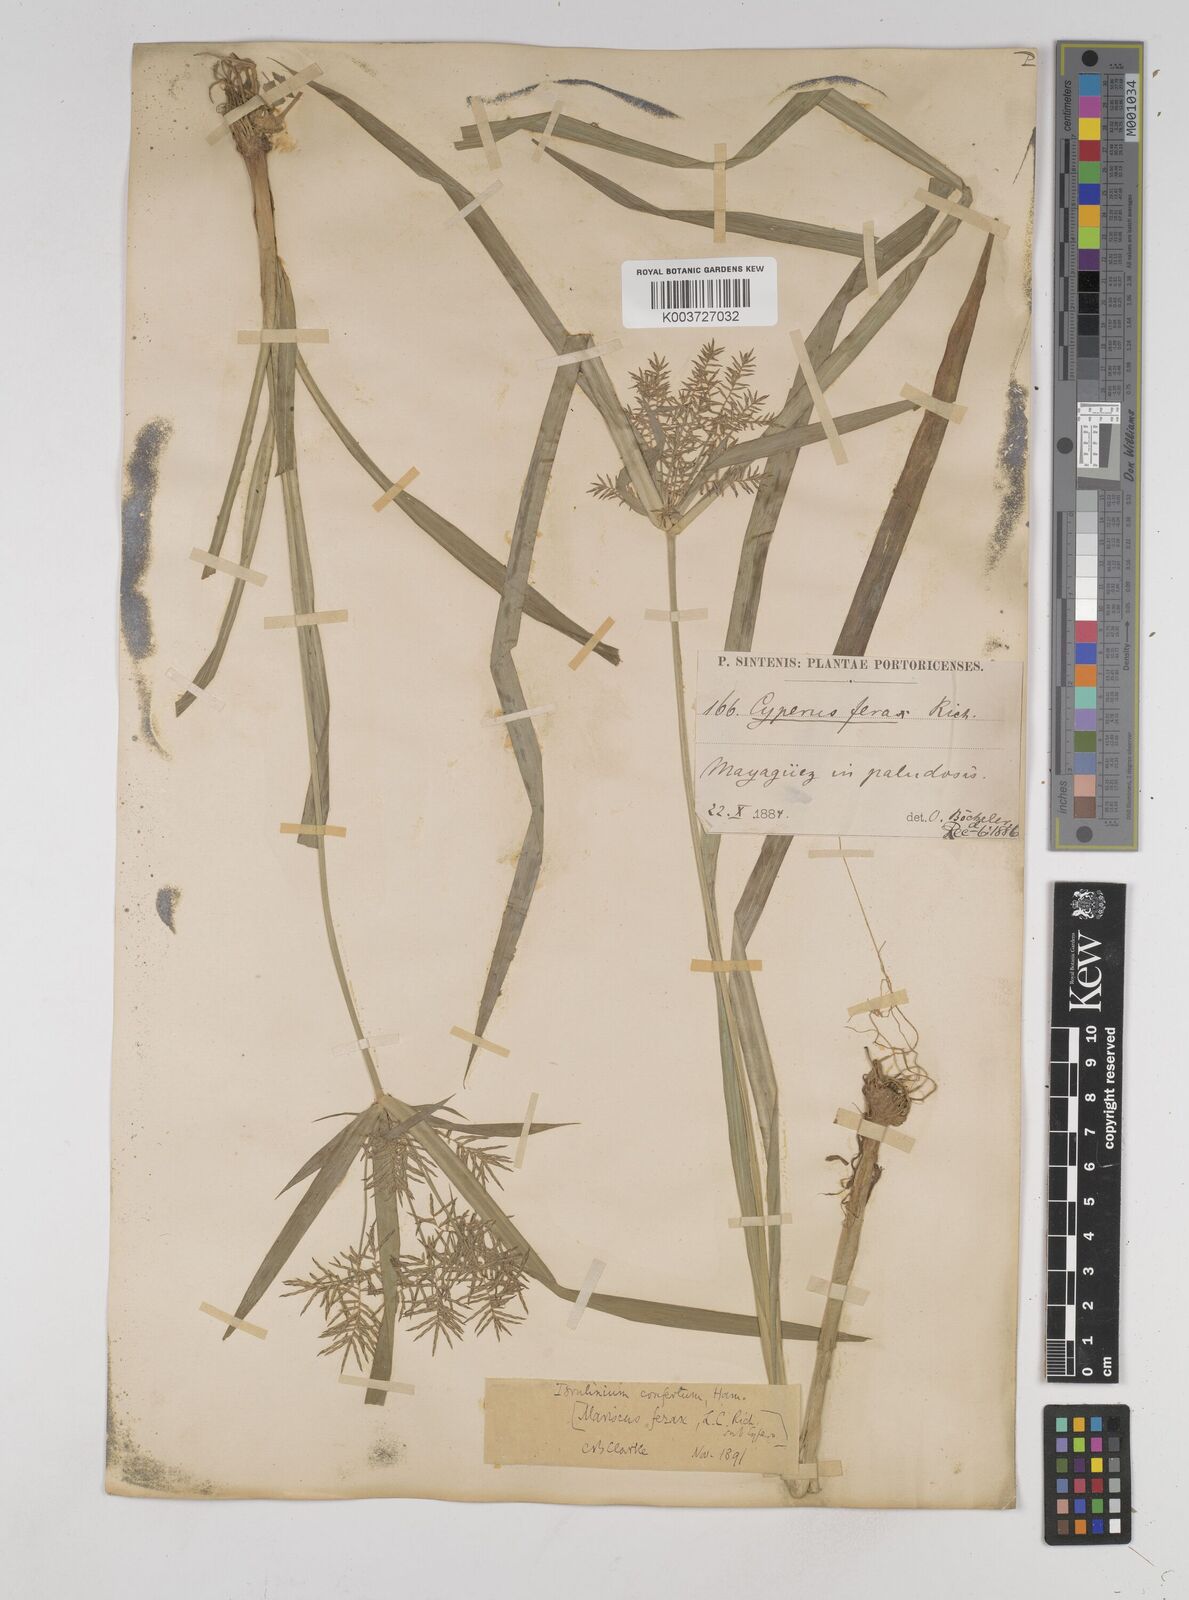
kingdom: Plantae
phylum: Tracheophyta
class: Liliopsida
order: Poales
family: Cyperaceae
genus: Cyperus
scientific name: Cyperus odoratus
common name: Fragrant flatsedge
